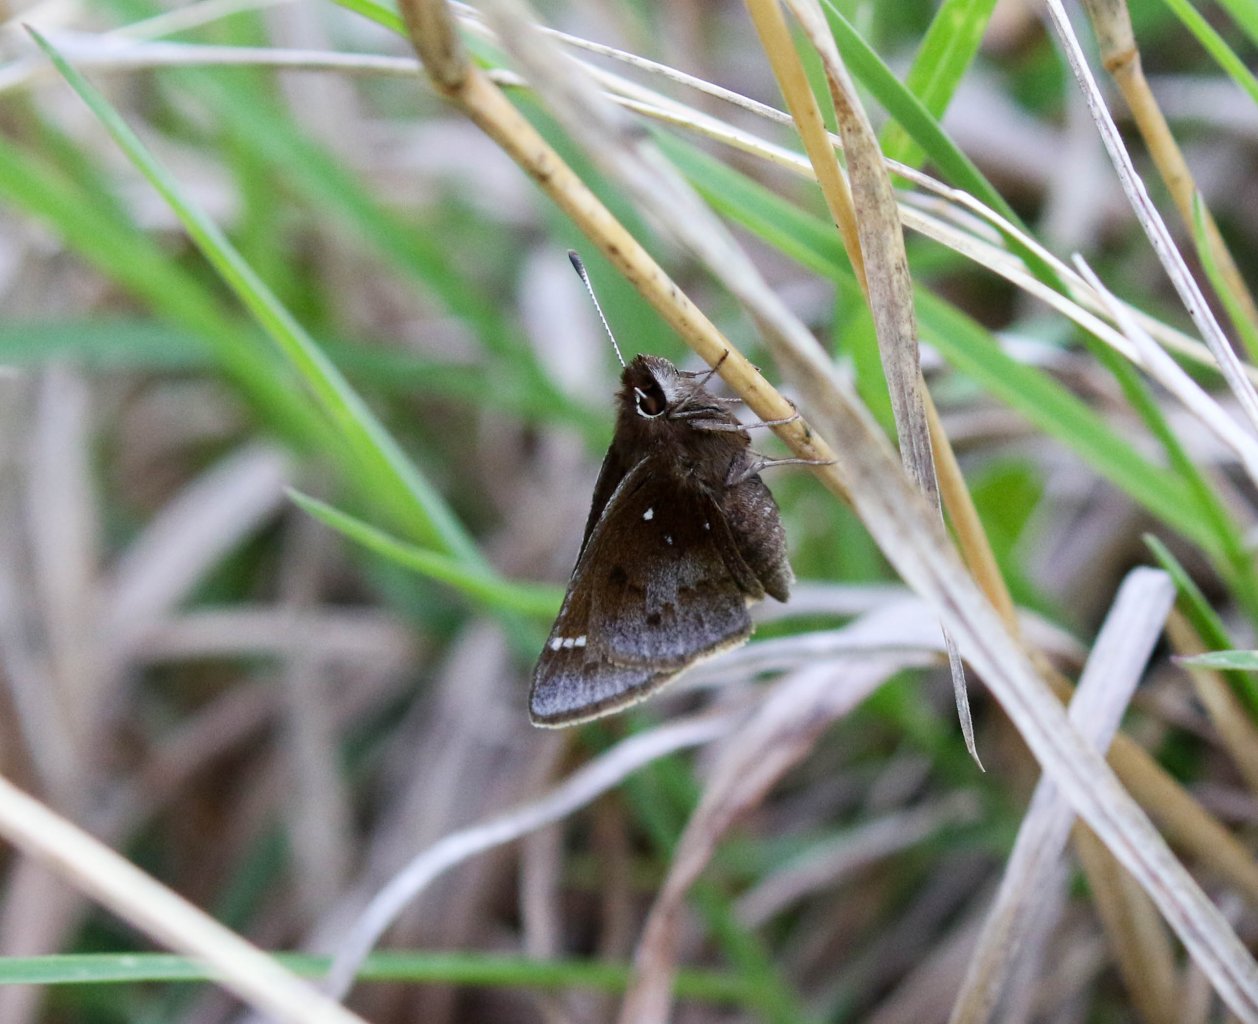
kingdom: Animalia
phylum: Arthropoda
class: Insecta
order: Lepidoptera
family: Hesperiidae
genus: Atrytonopsis
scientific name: Atrytonopsis hianna
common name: Dusted Skipper
